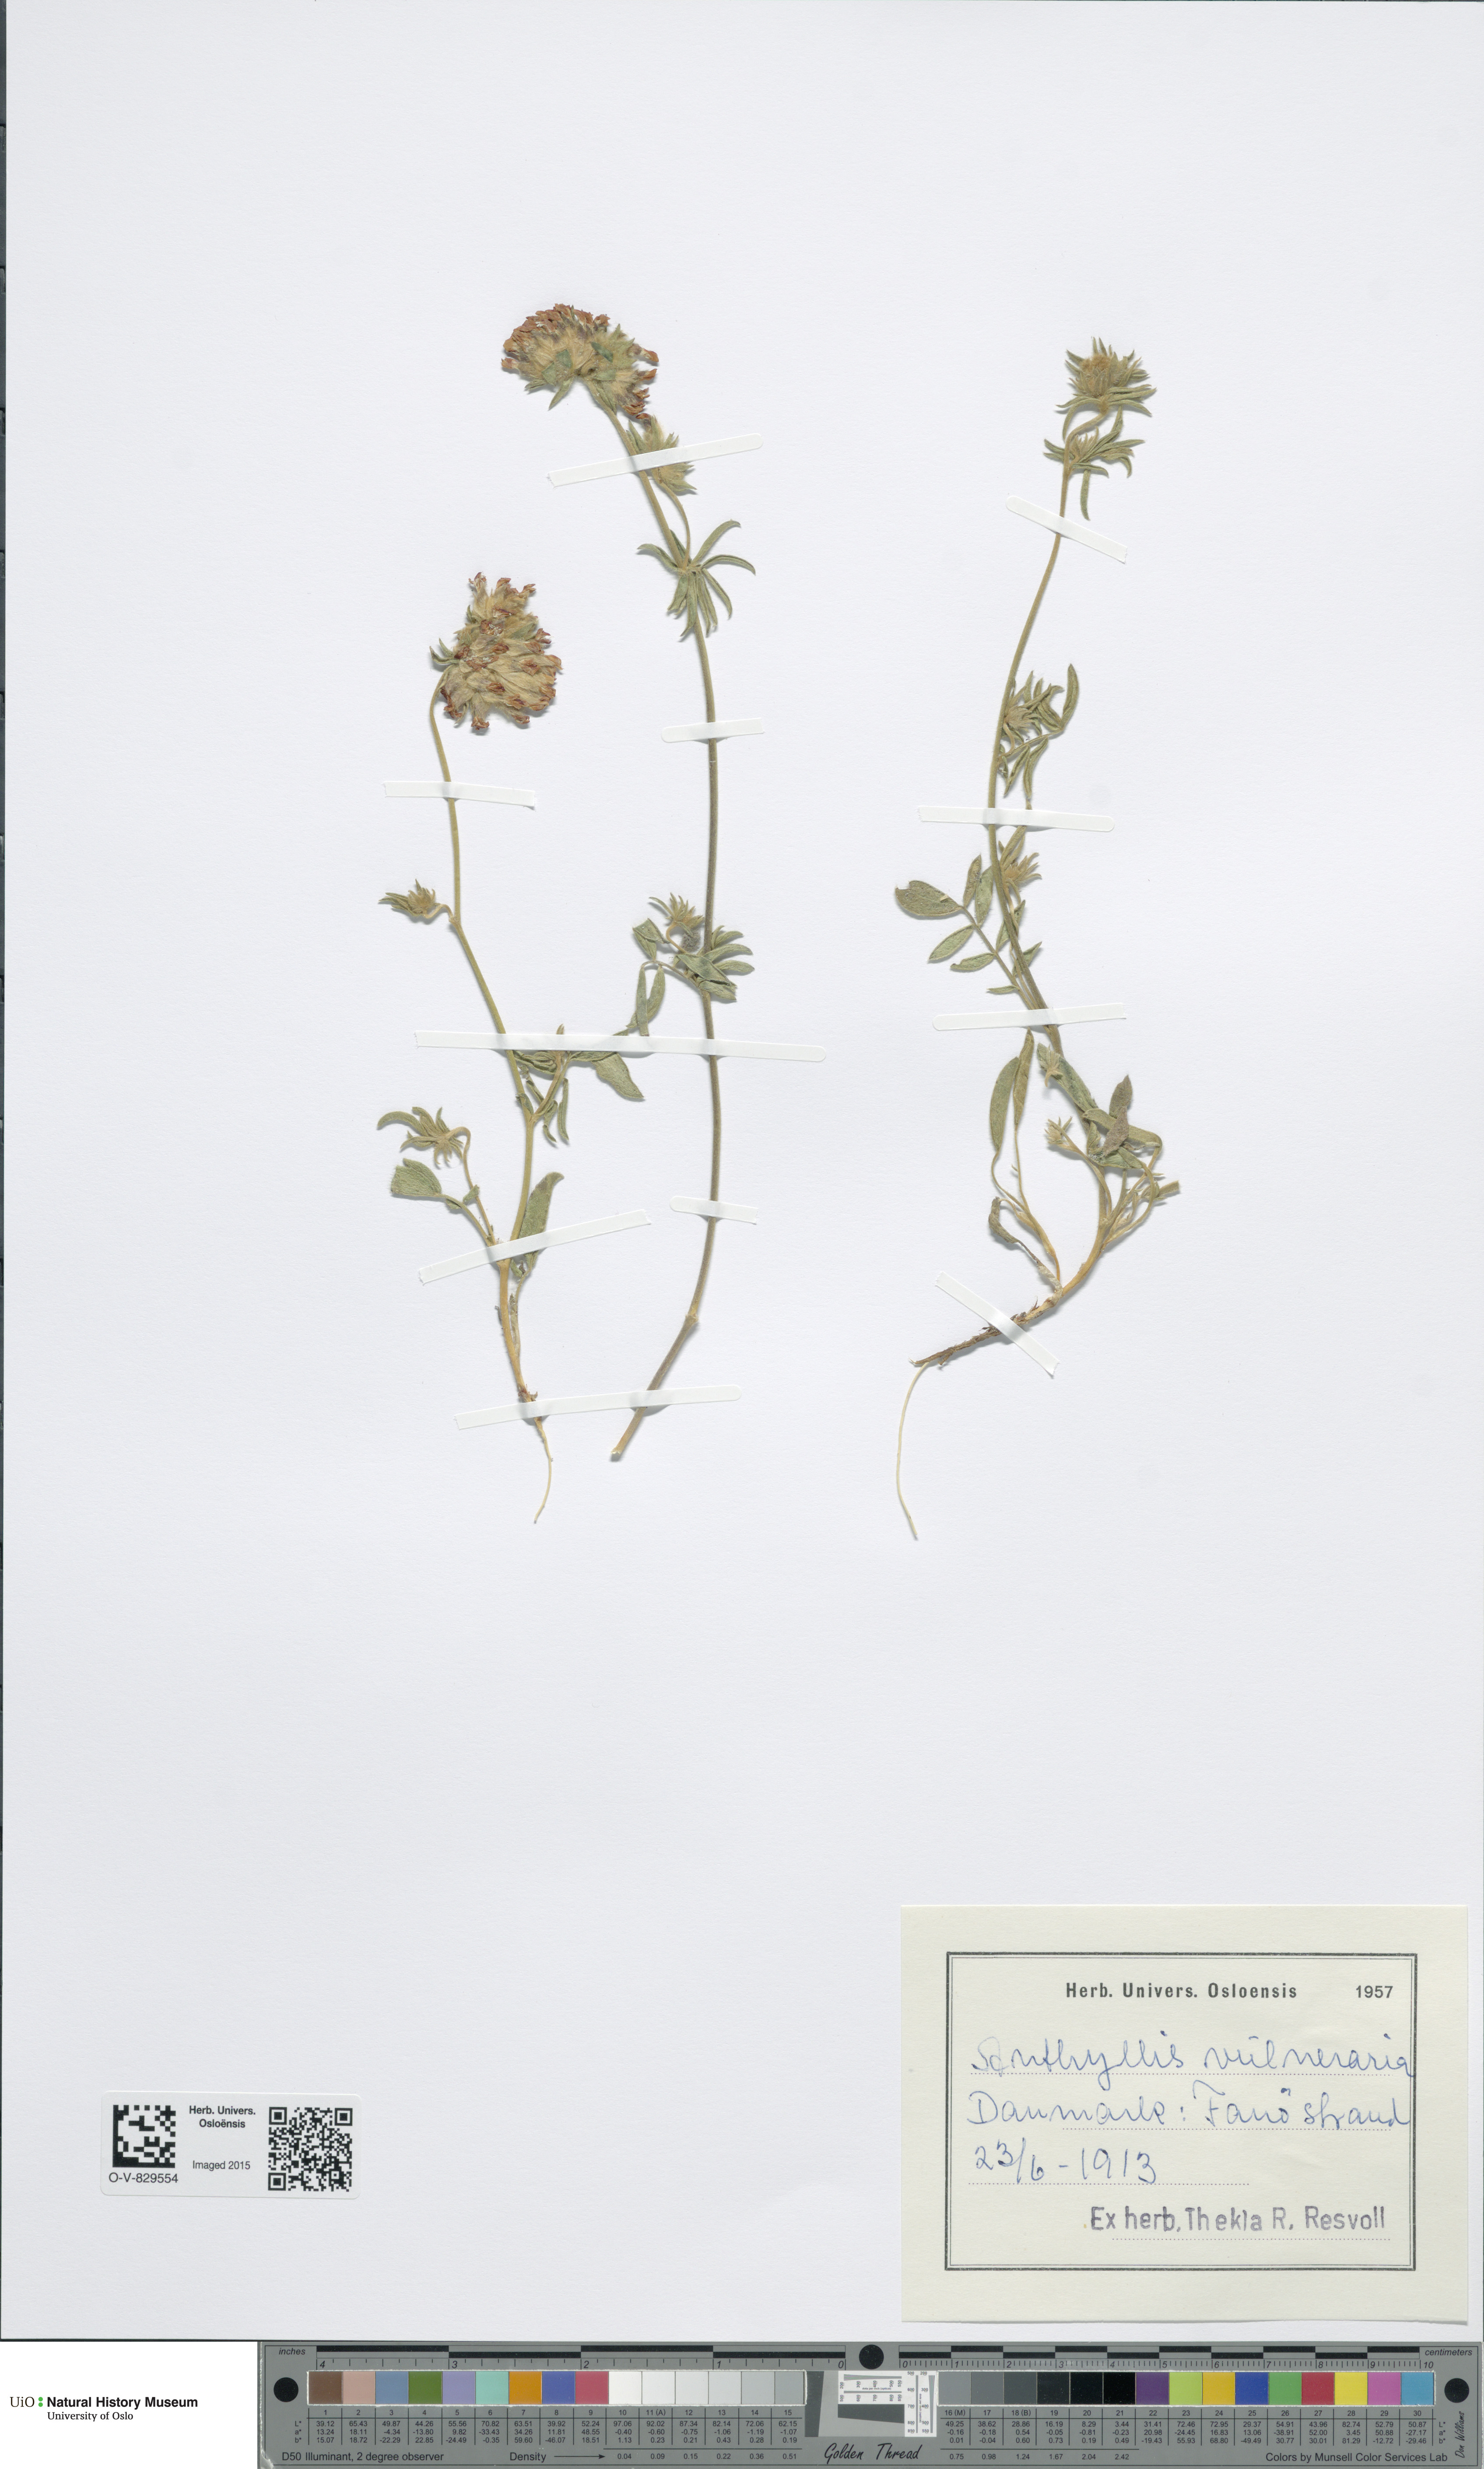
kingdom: Plantae
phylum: Tracheophyta
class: Magnoliopsida
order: Fabales
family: Fabaceae
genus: Anthyllis
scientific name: Anthyllis vulneraria
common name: Kidney vetch
